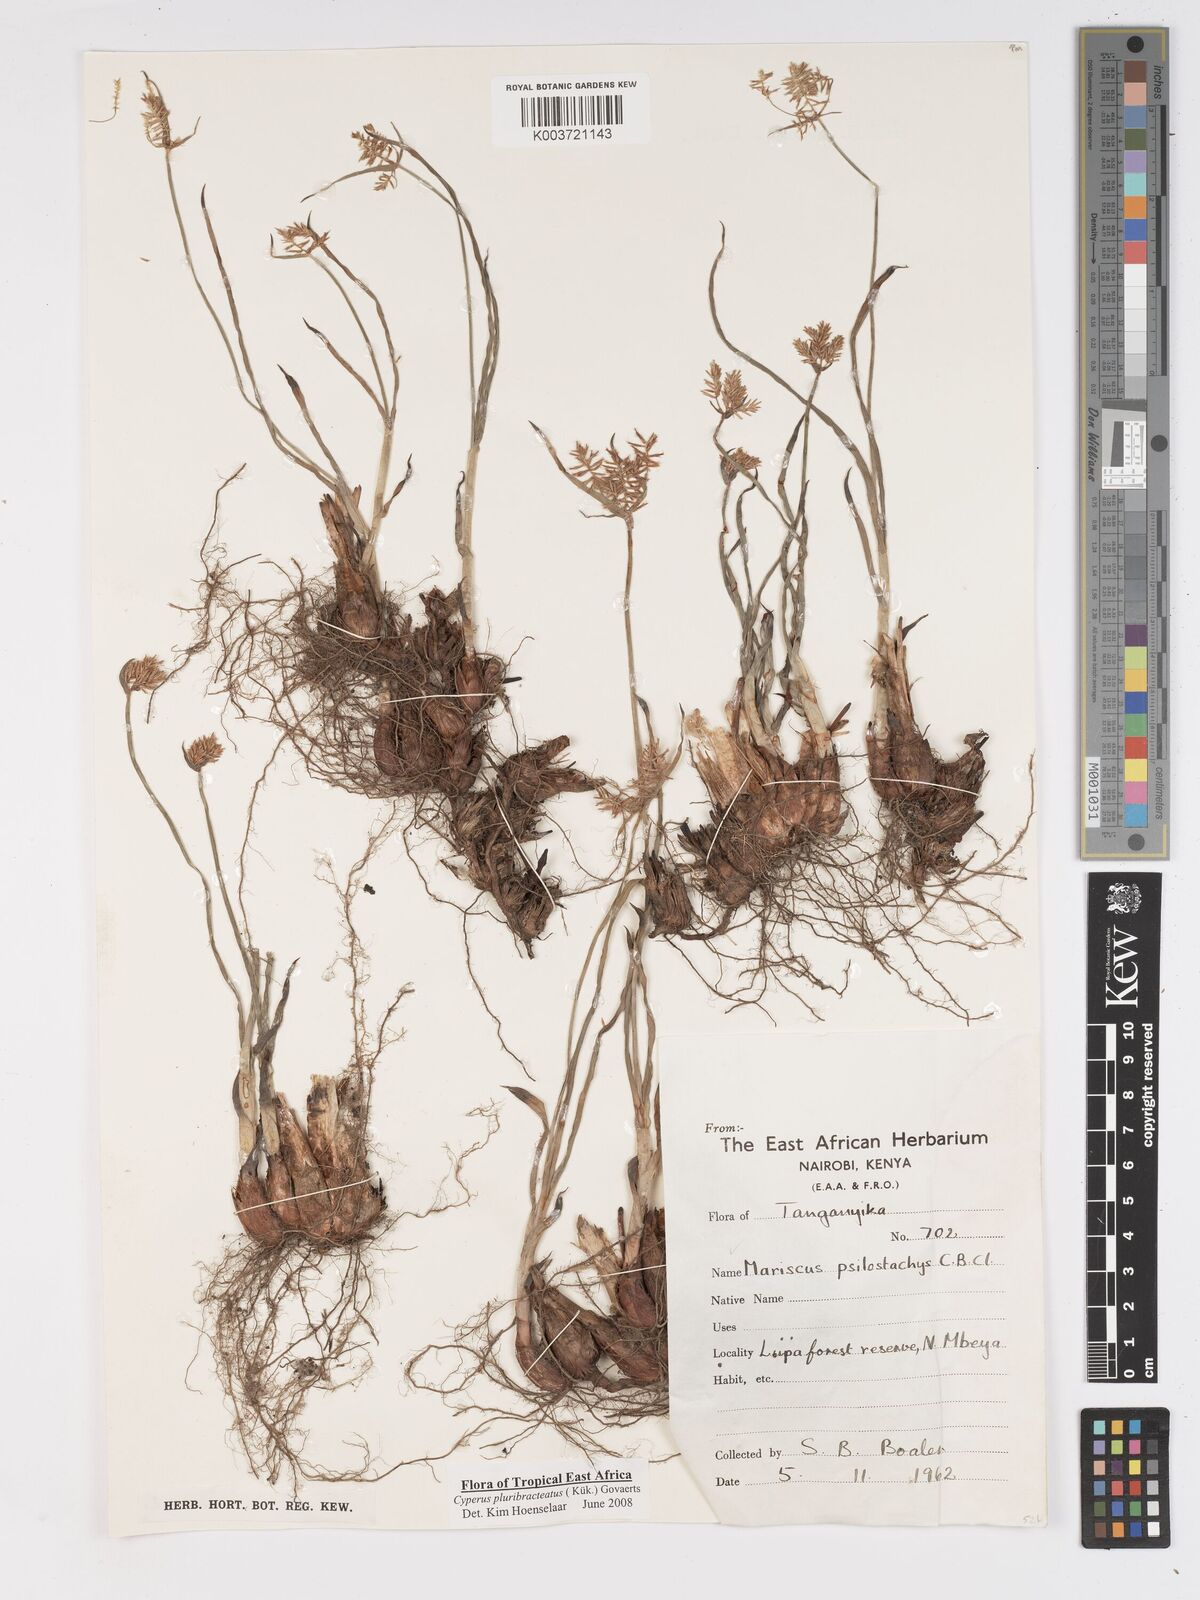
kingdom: Plantae
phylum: Tracheophyta
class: Liliopsida
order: Poales
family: Cyperaceae
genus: Cyperus
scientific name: Cyperus trigonellus
